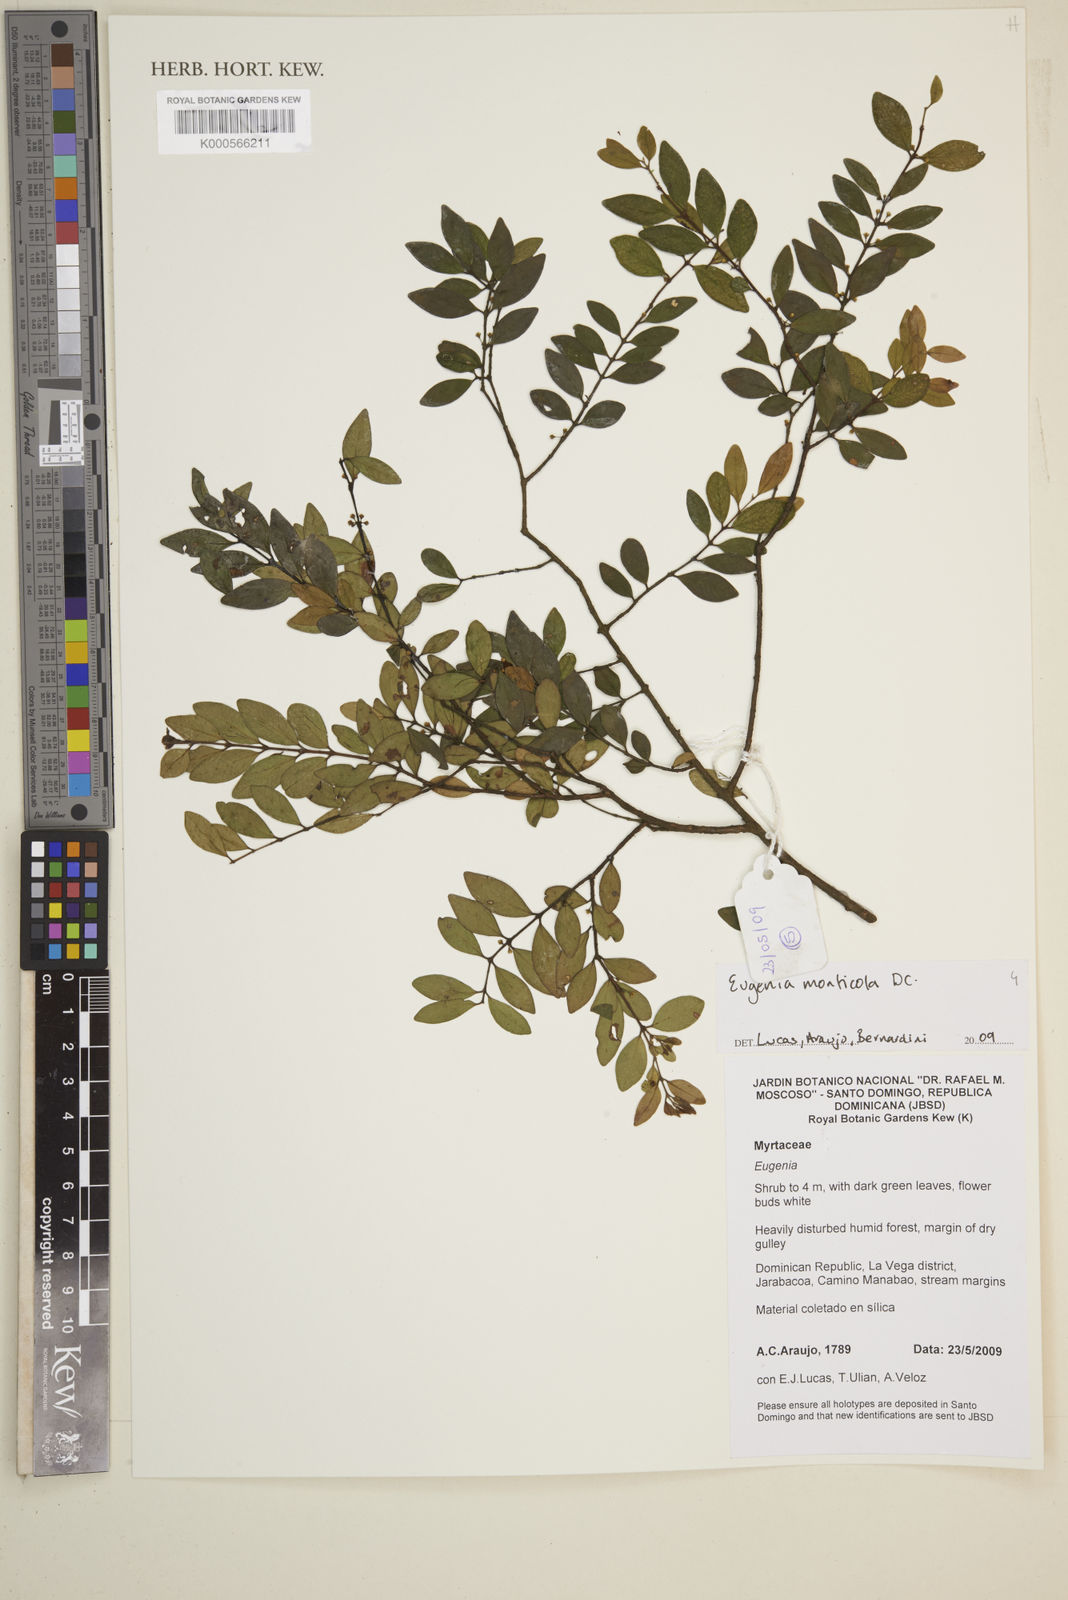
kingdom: Plantae
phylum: Tracheophyta
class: Magnoliopsida
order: Myrtales
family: Myrtaceae
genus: Eugenia
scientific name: Eugenia monticola
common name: Birds berry
